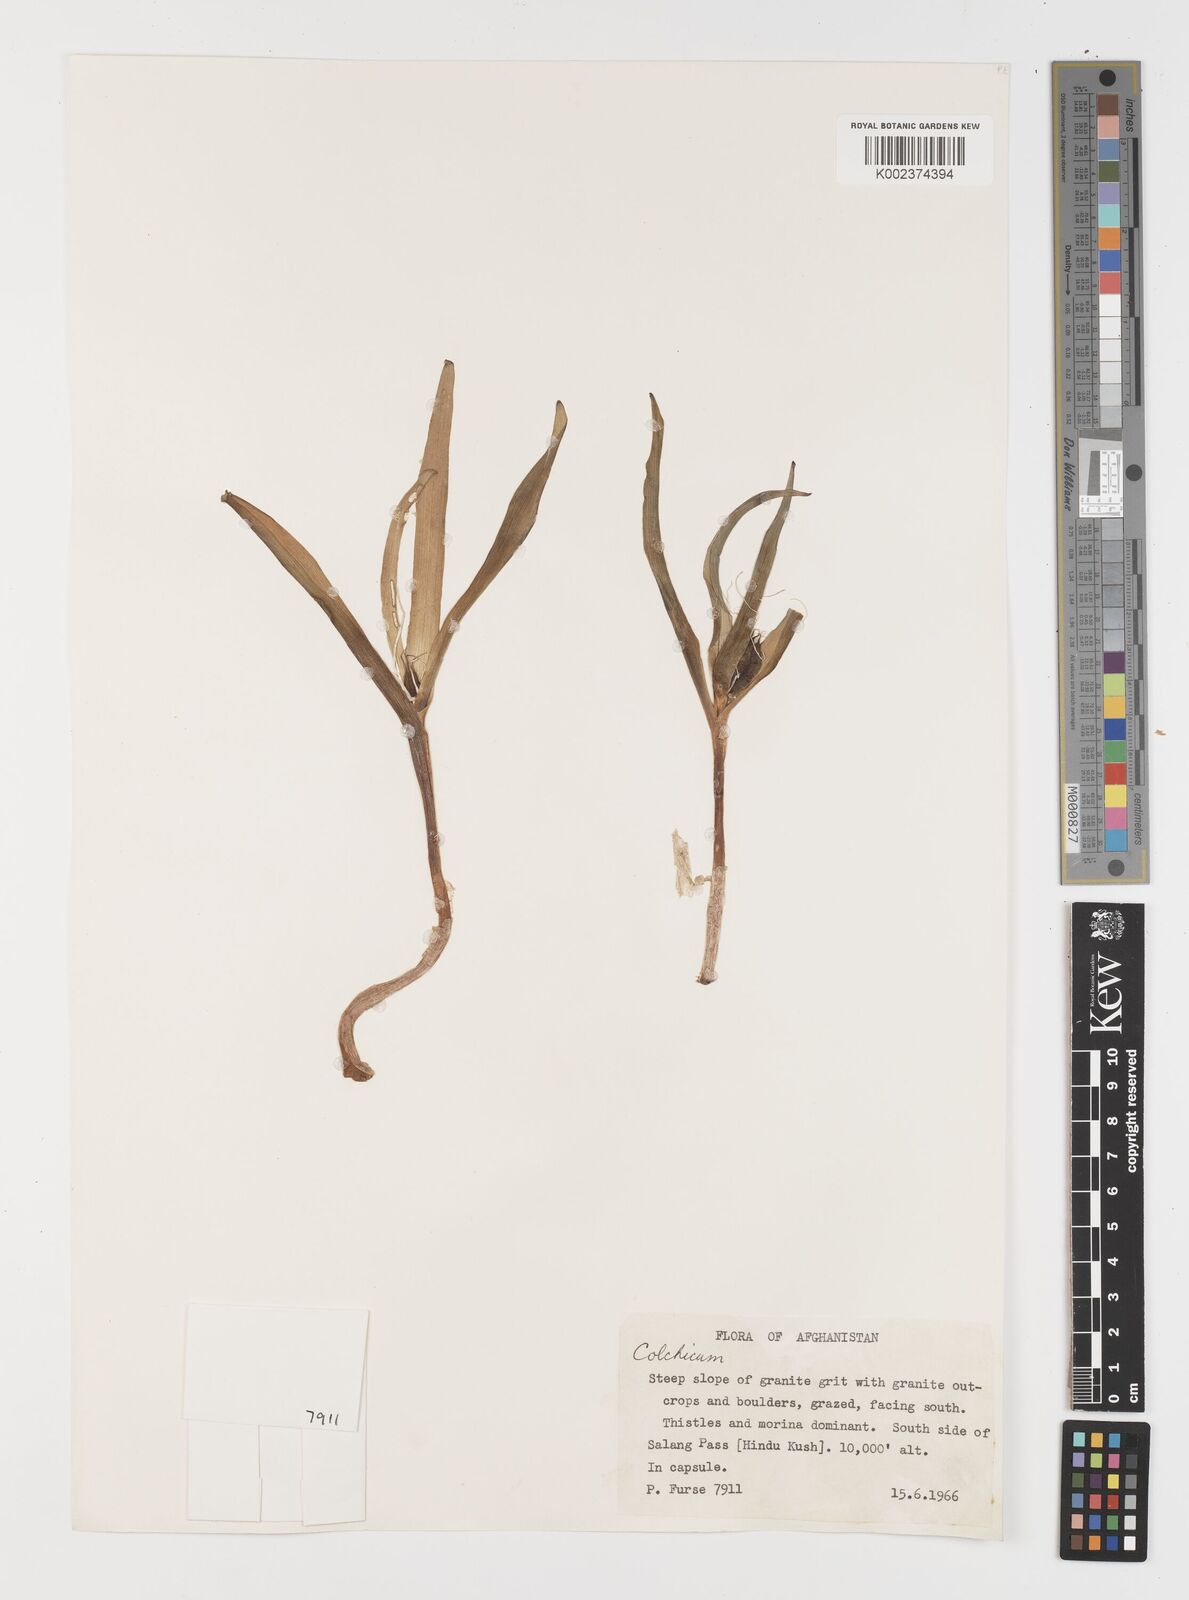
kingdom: Plantae
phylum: Tracheophyta
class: Liliopsida
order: Liliales
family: Colchicaceae
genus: Colchicum
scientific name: Colchicum
